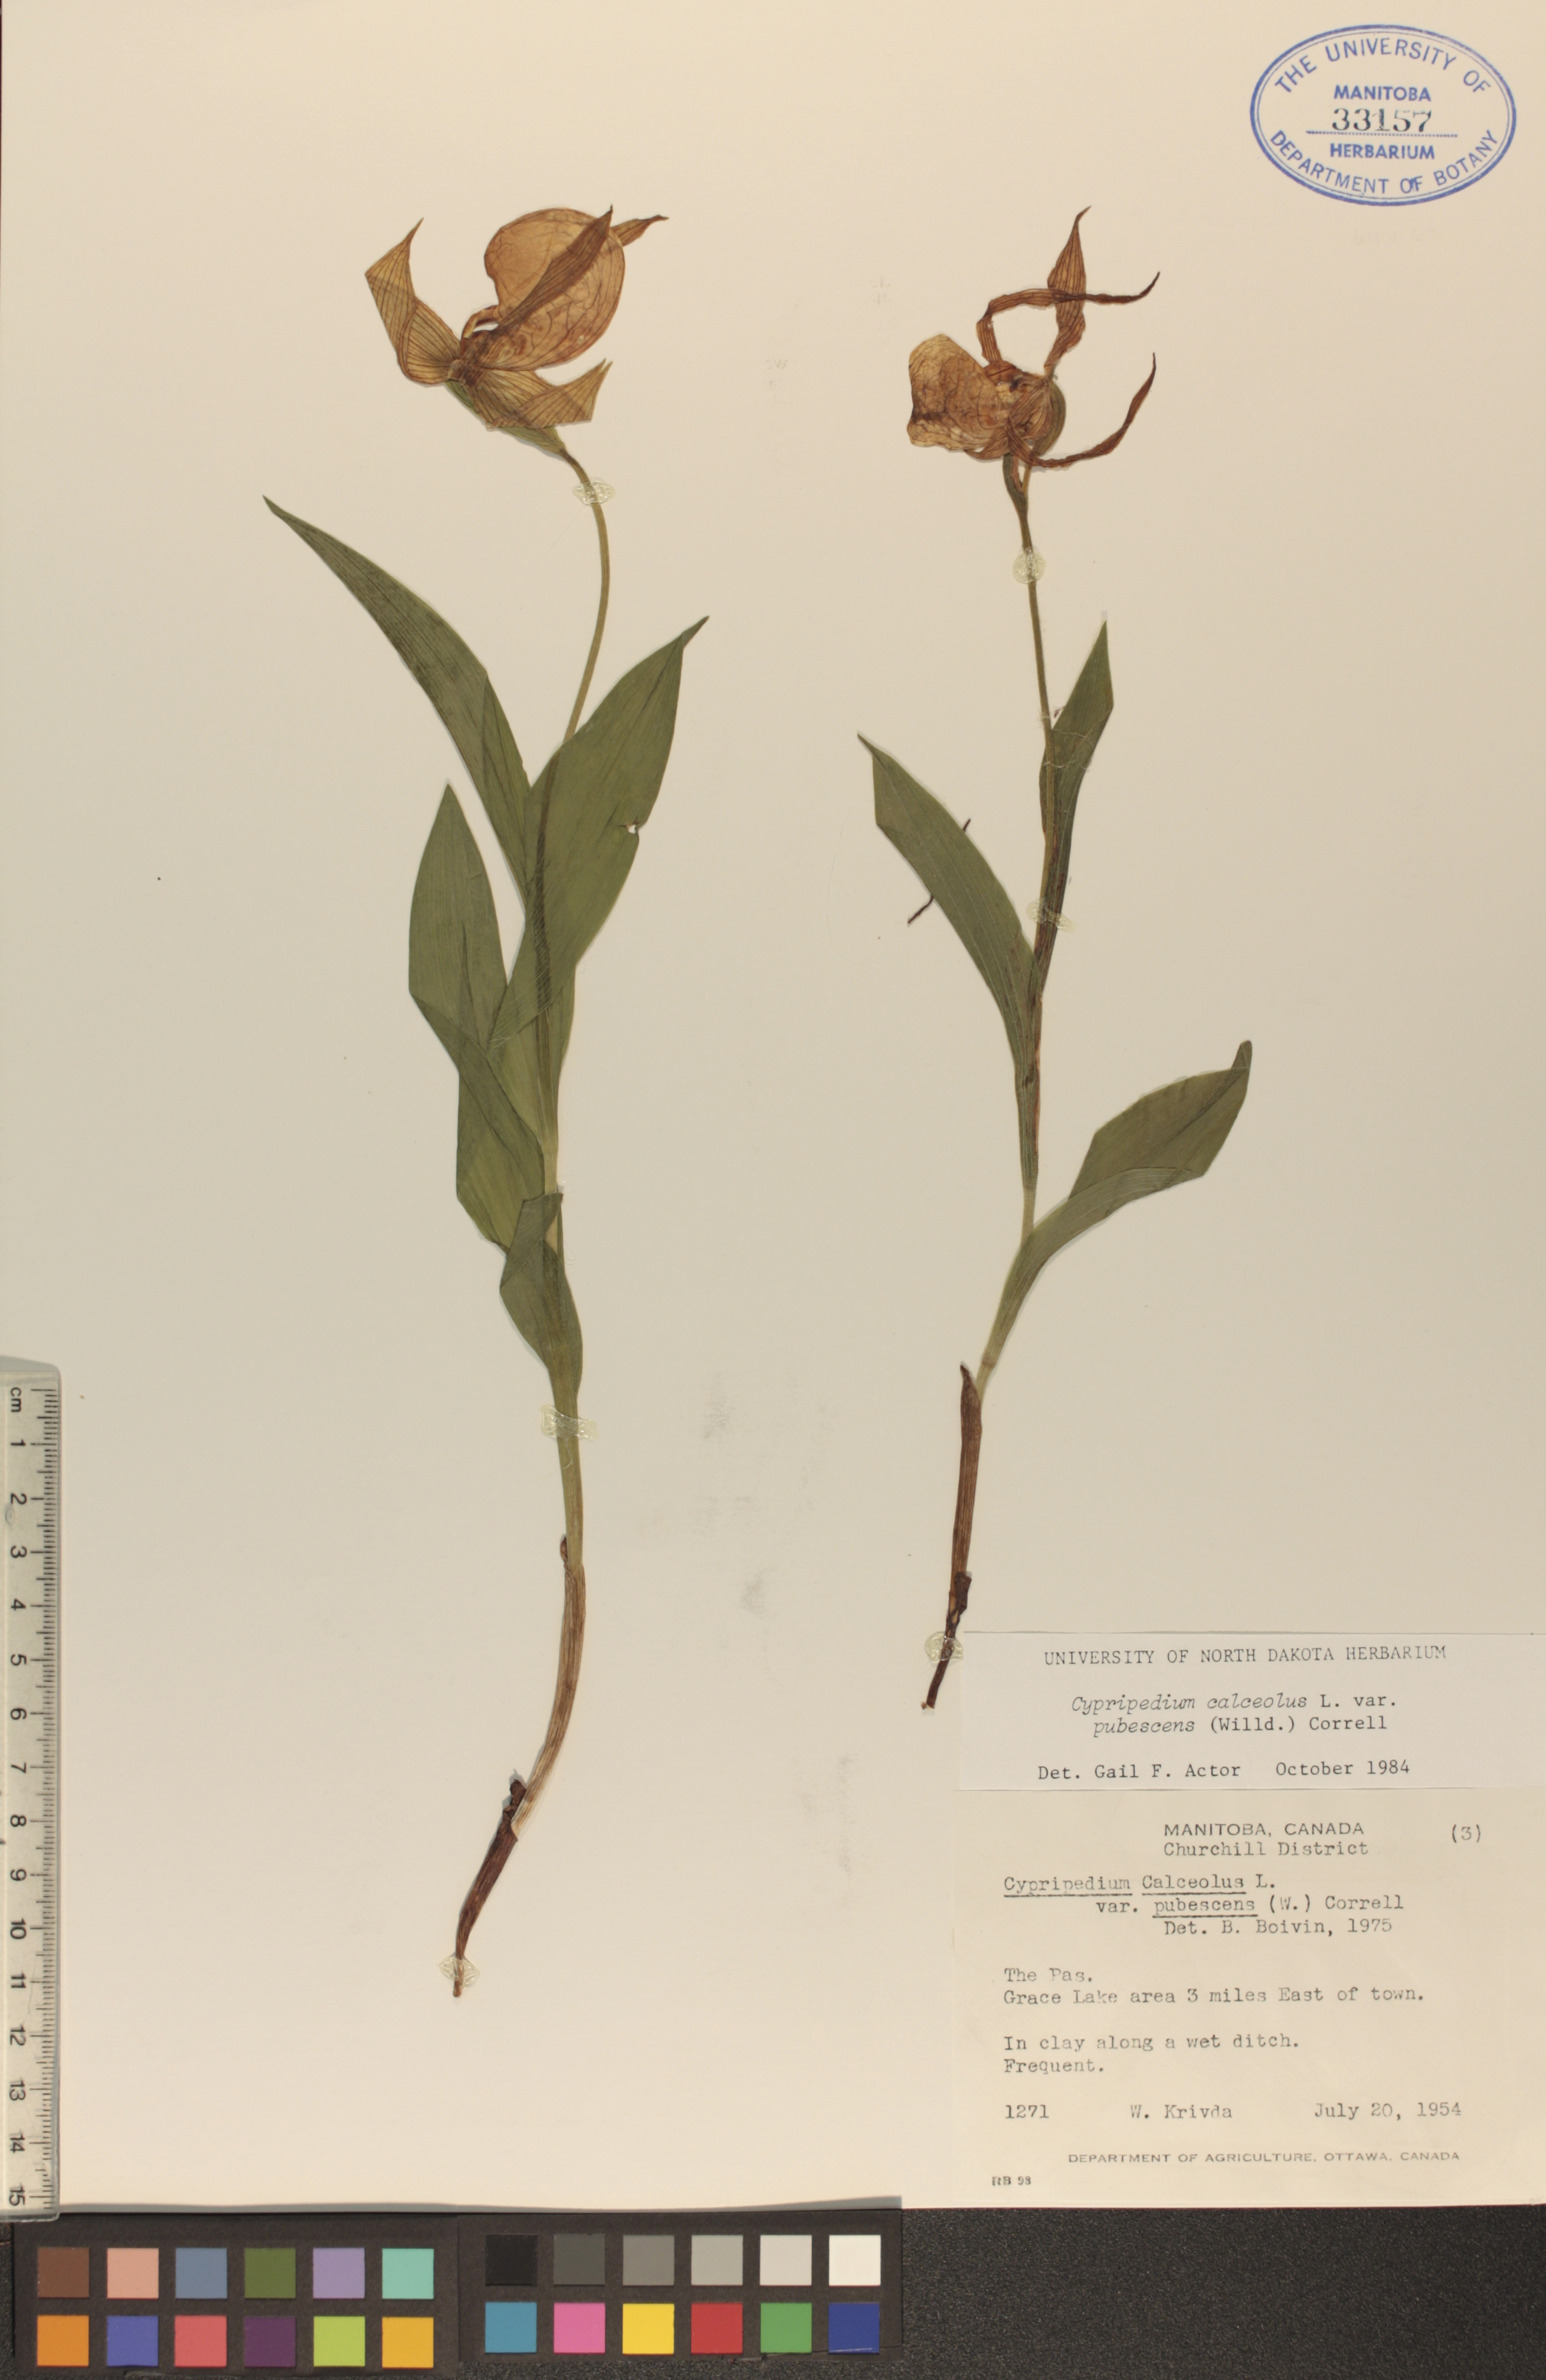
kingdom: Plantae
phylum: Tracheophyta
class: Liliopsida
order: Asparagales
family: Orchidaceae
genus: Cypripedium
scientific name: Cypripedium parviflorum
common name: American yellow lady's-slipper
